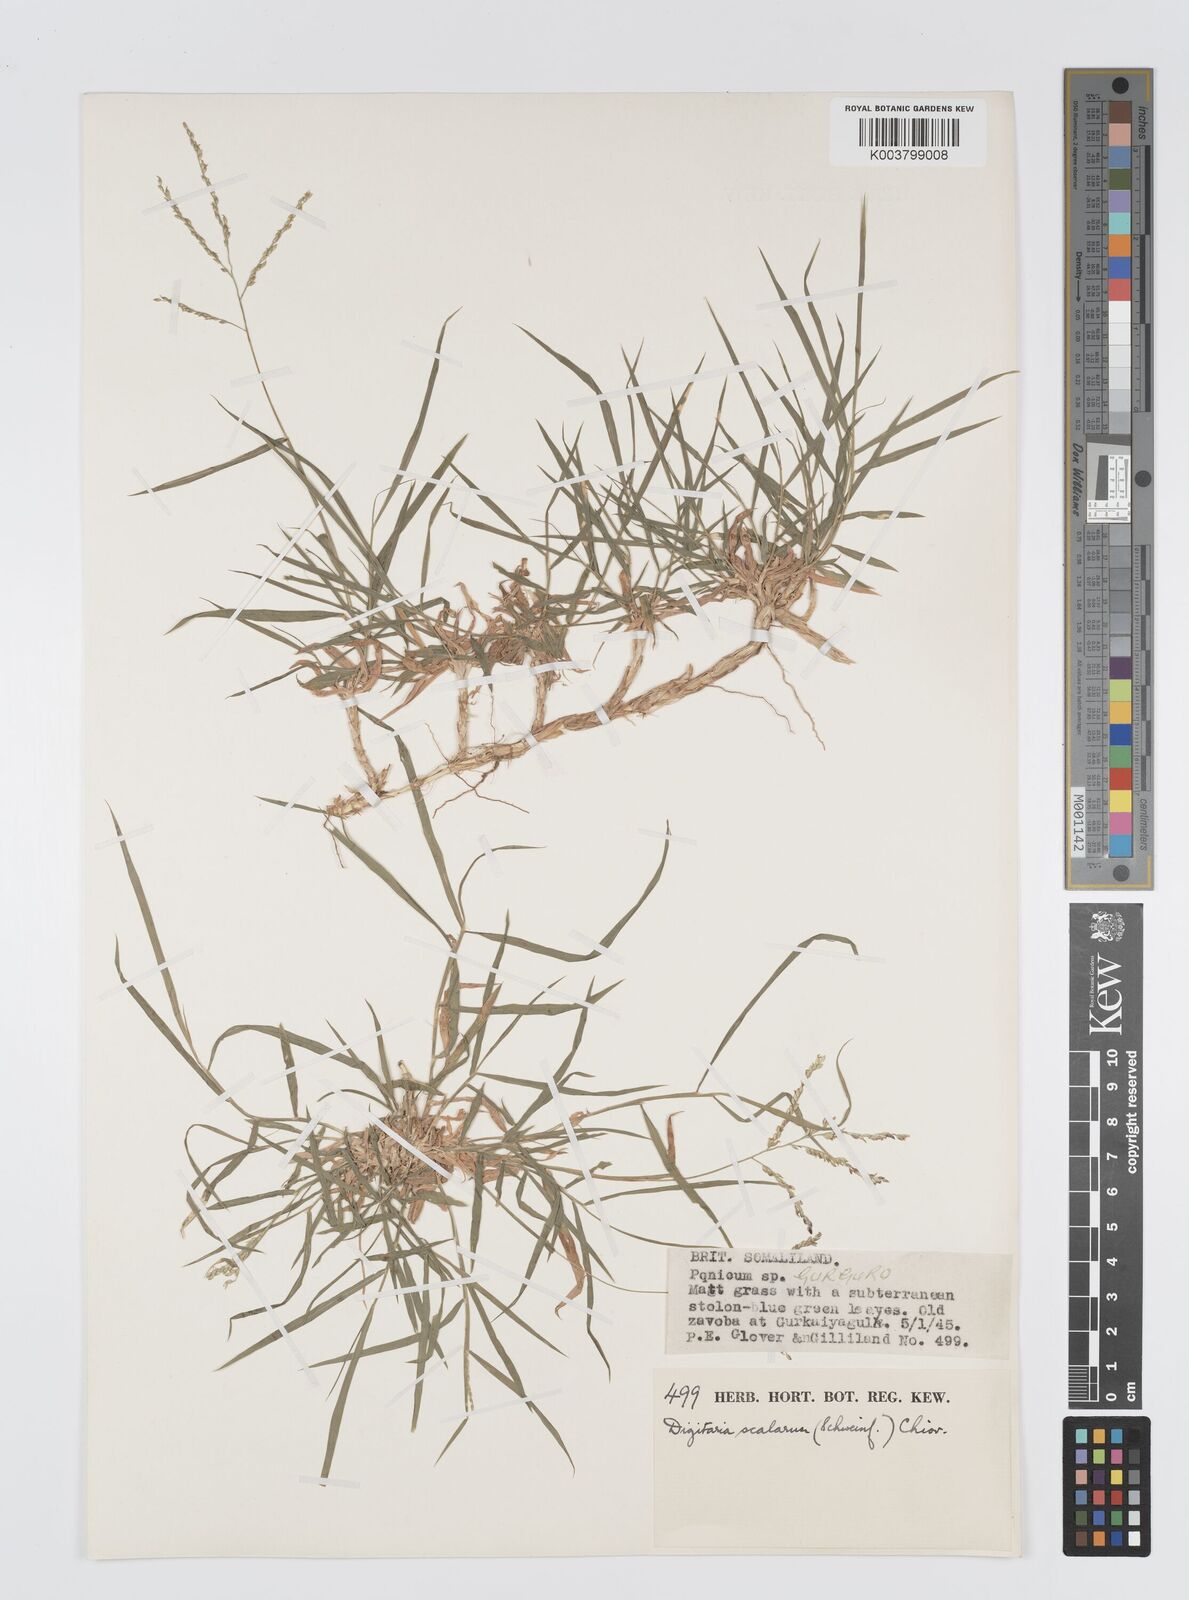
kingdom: Plantae
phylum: Tracheophyta
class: Liliopsida
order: Poales
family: Poaceae
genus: Digitaria
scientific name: Digitaria abyssinica
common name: African couchgrass
